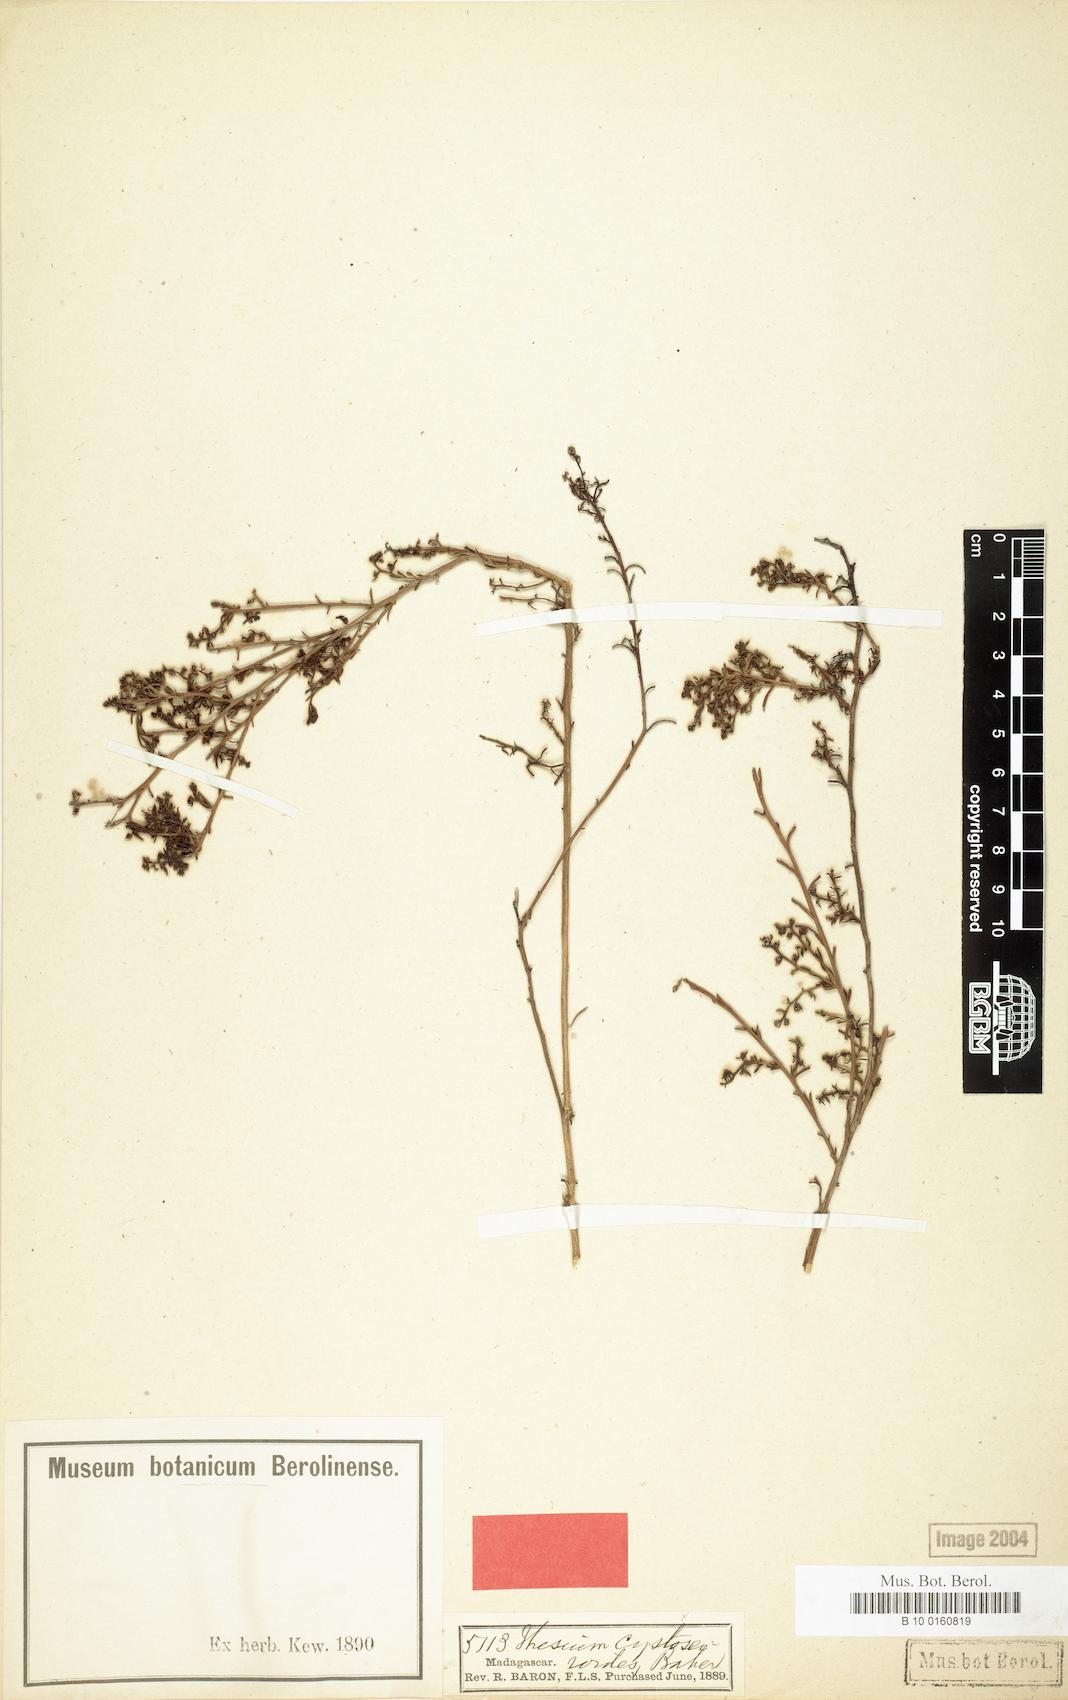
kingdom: Plantae
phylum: Tracheophyta
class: Magnoliopsida
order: Santalales
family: Thesiaceae
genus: Thesium
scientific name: Thesium cystoseiroides
